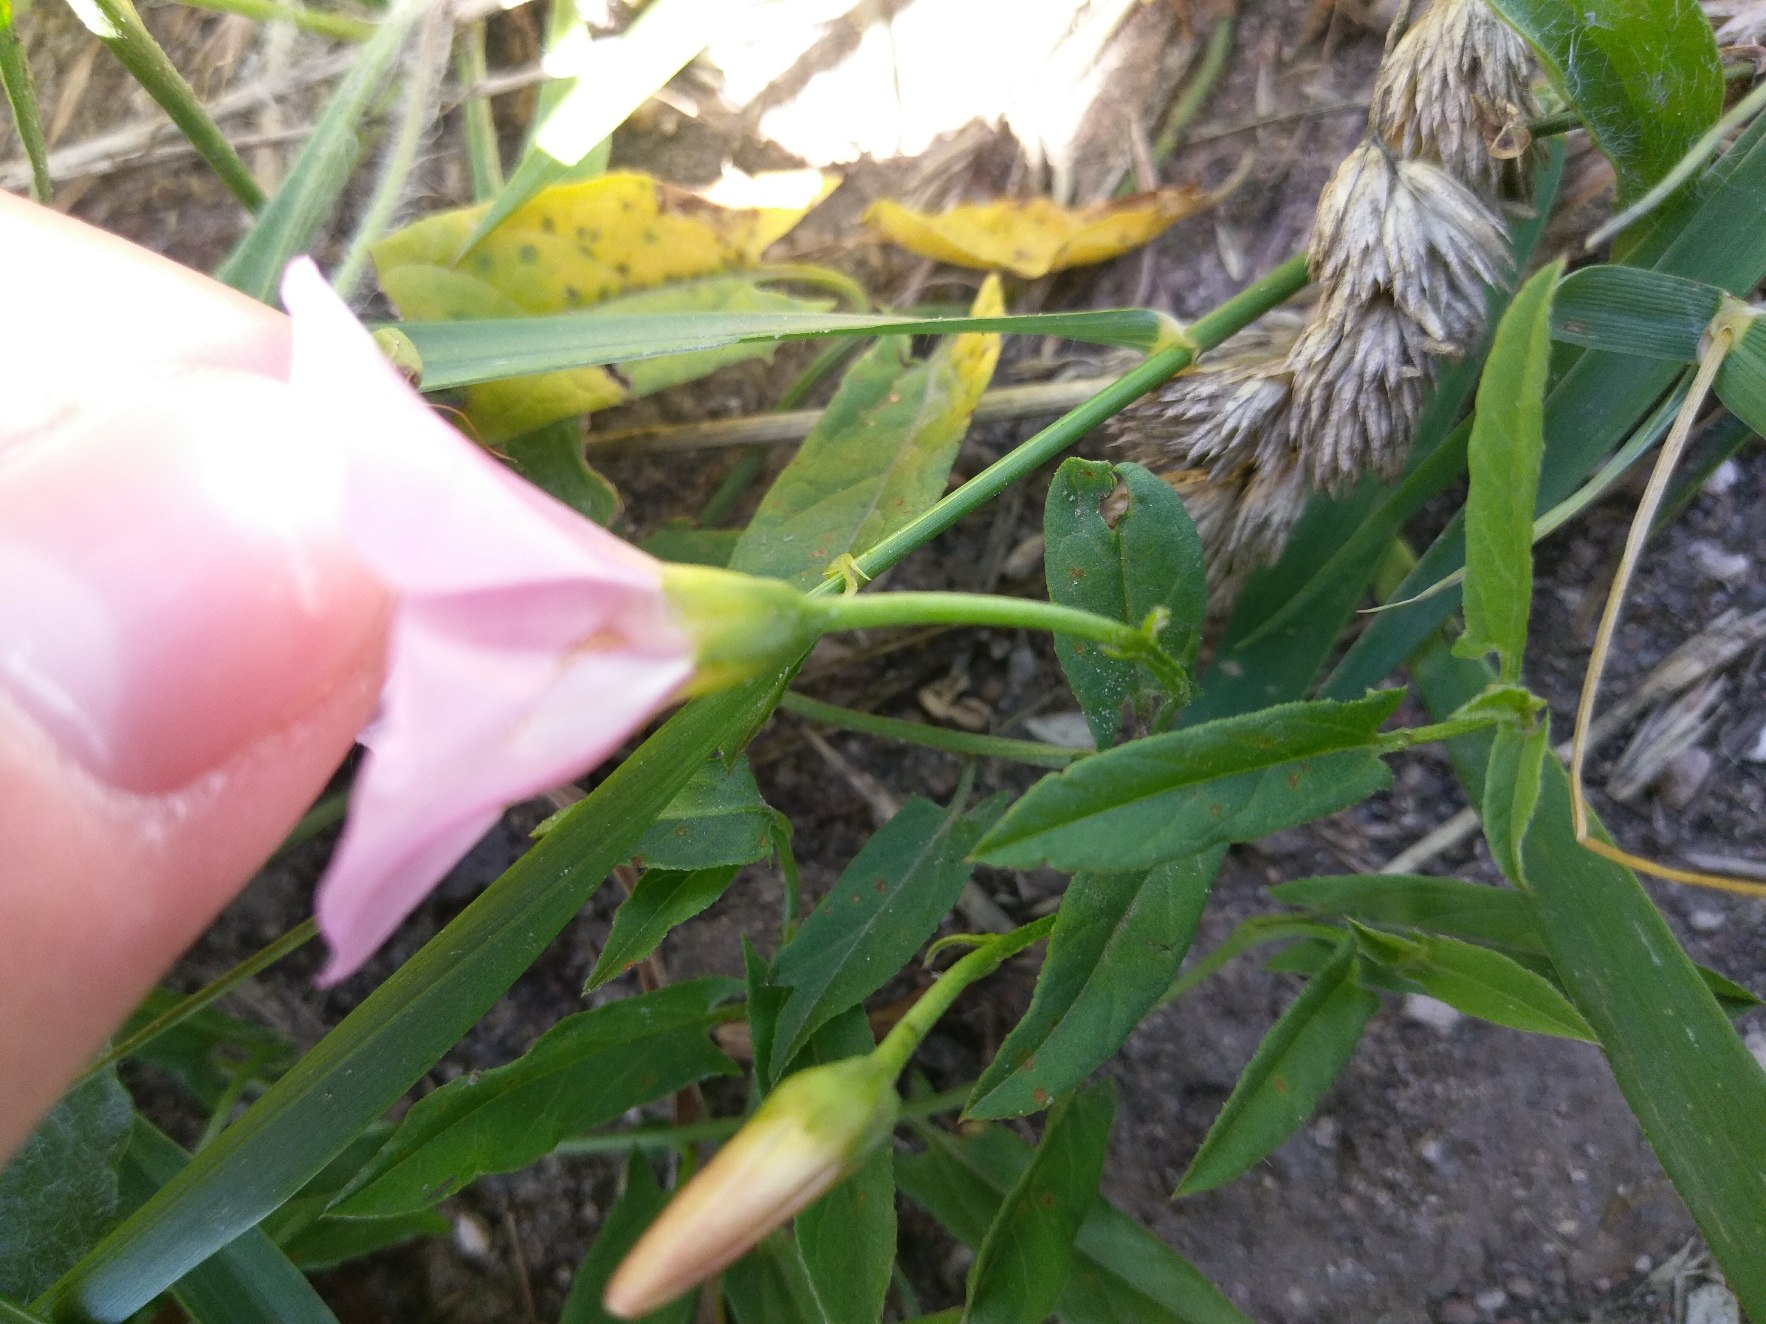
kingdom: Plantae
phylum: Tracheophyta
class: Magnoliopsida
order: Solanales
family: Convolvulaceae
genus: Convolvulus
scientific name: Convolvulus arvensis
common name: Ager-snerle
